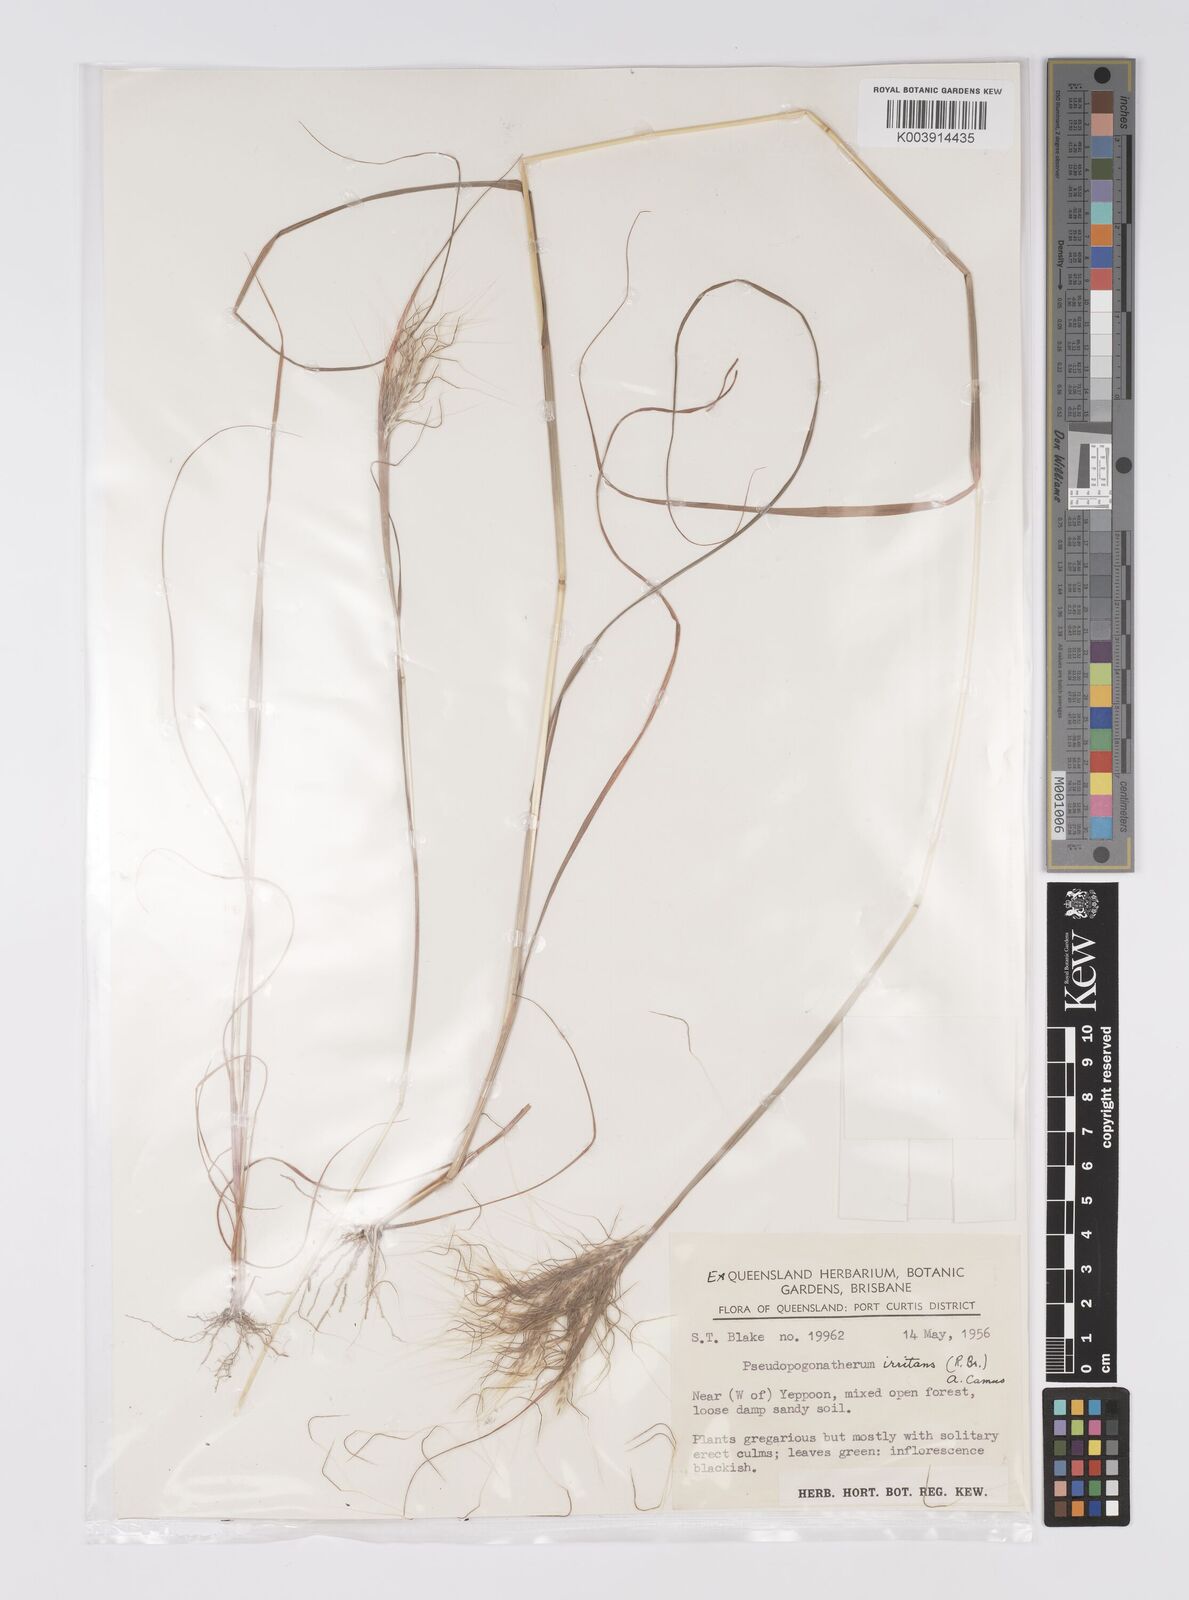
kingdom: Plantae
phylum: Tracheophyta
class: Liliopsida
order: Poales
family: Poaceae
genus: Pseudopogonatherum
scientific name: Pseudopogonatherum irritans
